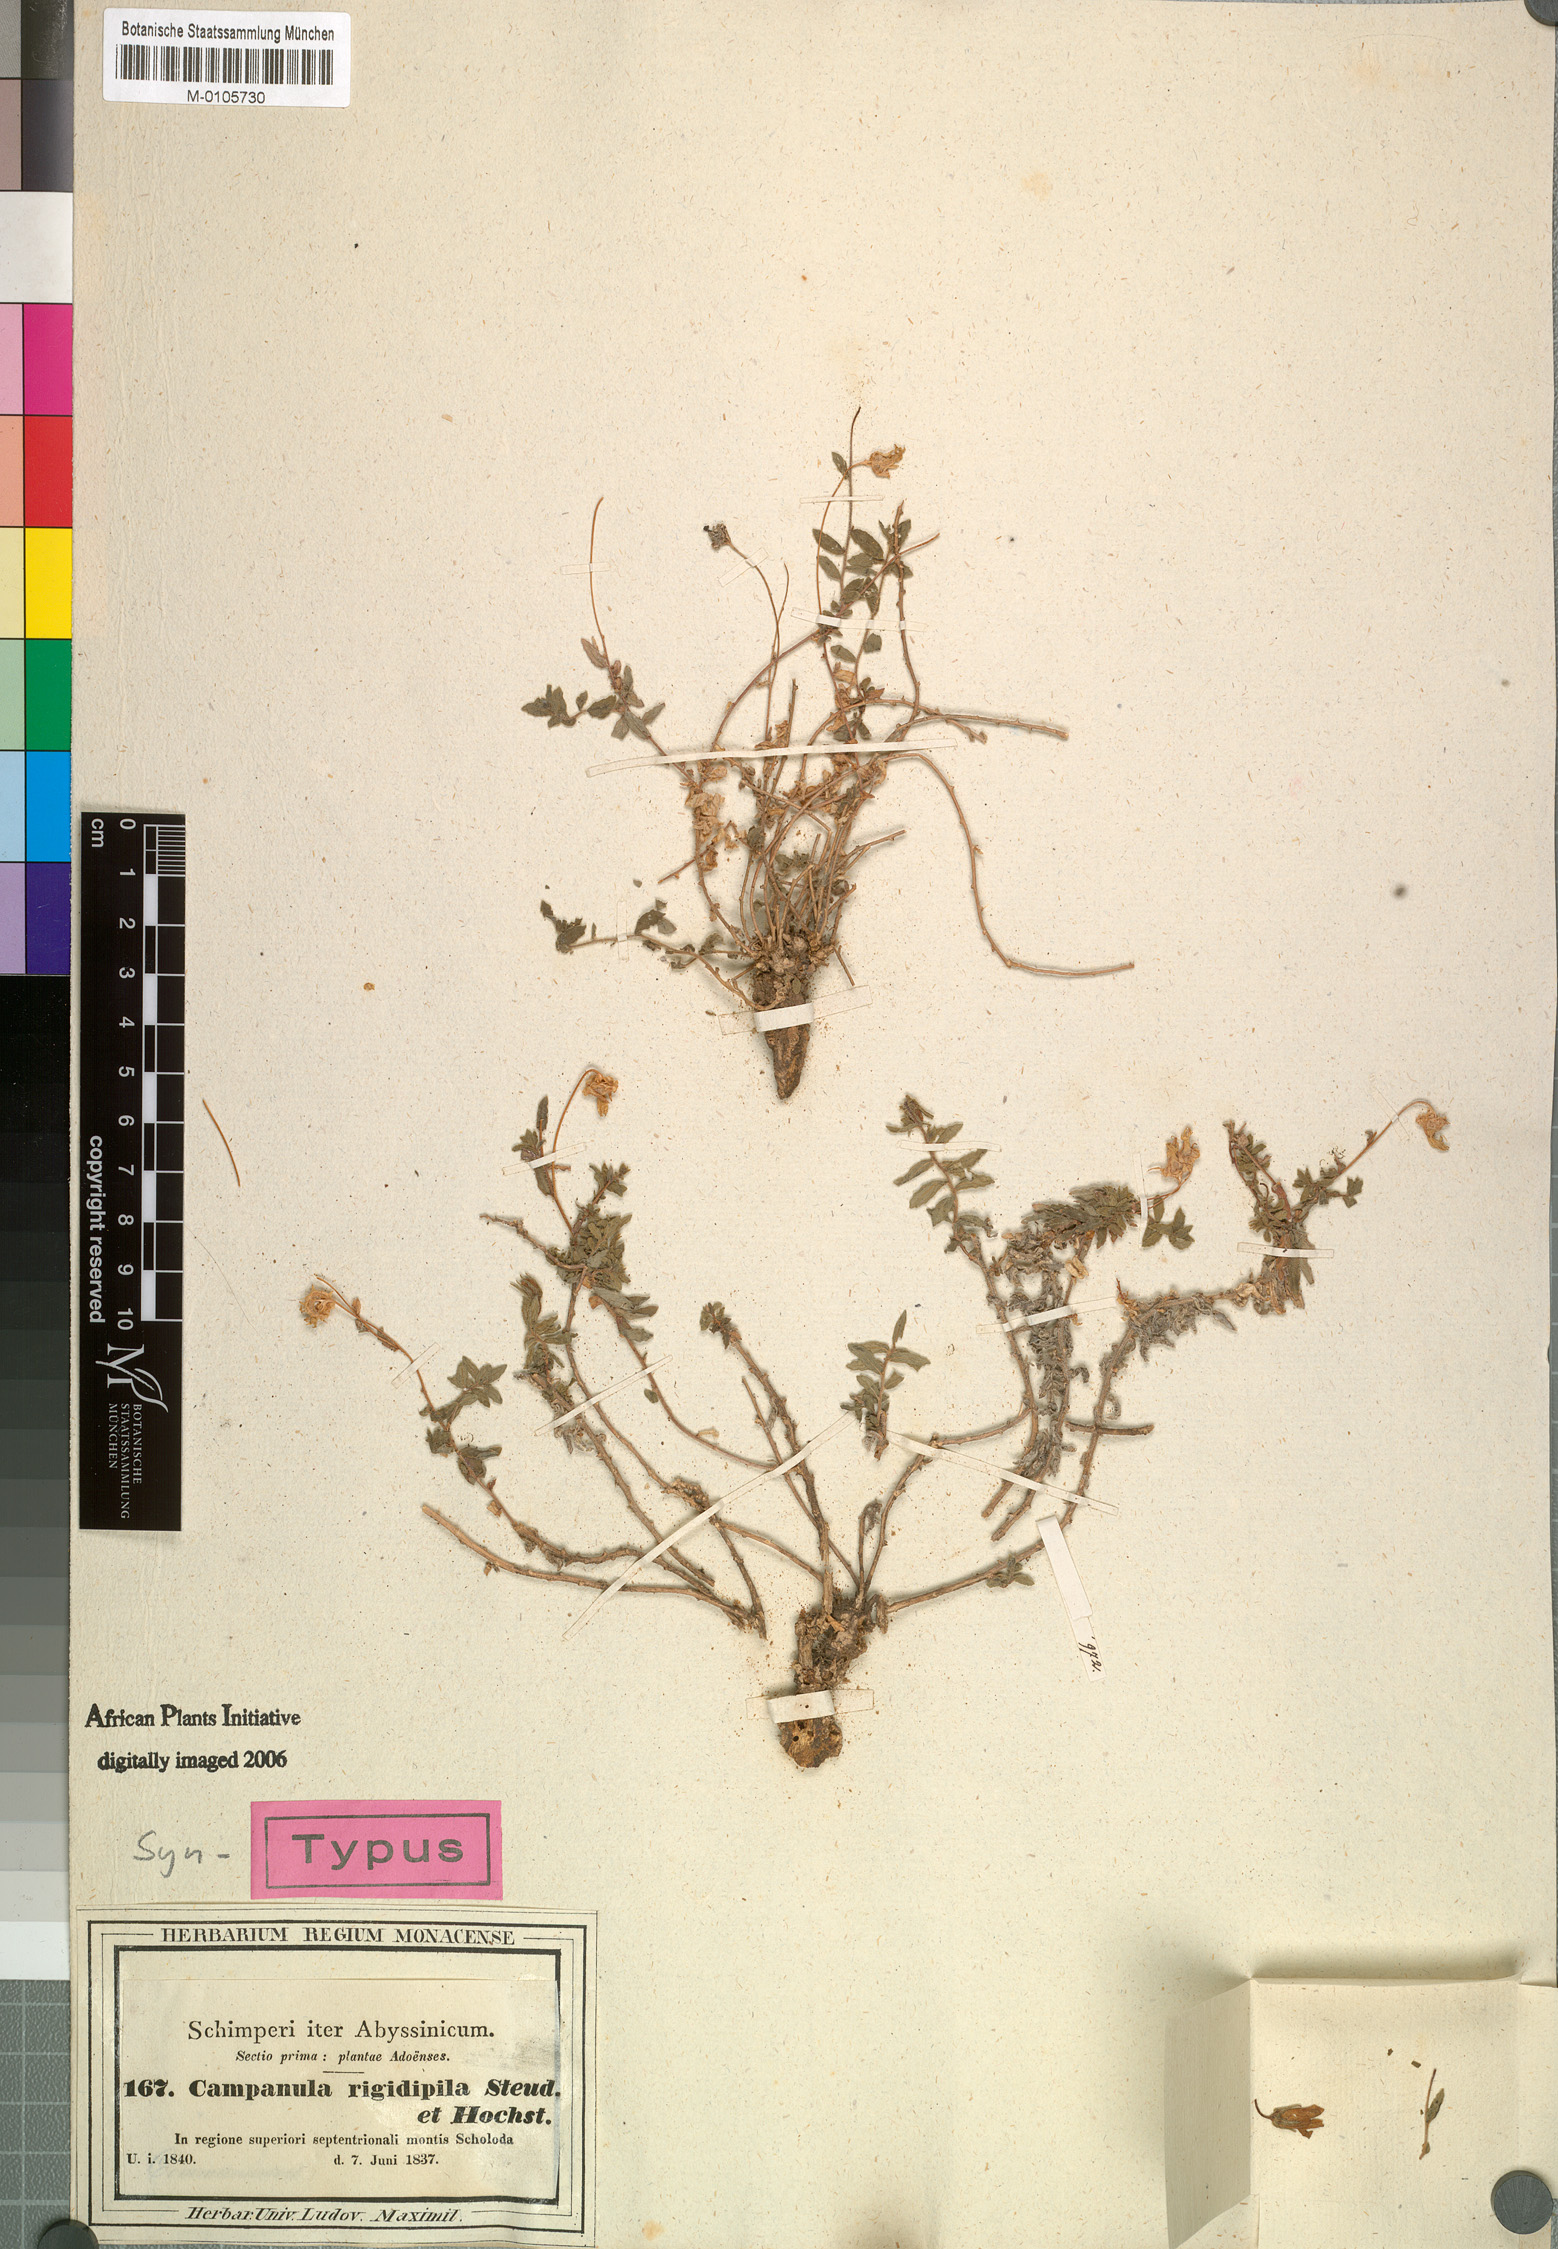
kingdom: Plantae
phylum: Tracheophyta
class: Magnoliopsida
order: Asterales
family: Campanulaceae
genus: Campanula
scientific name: Campanula edulis
